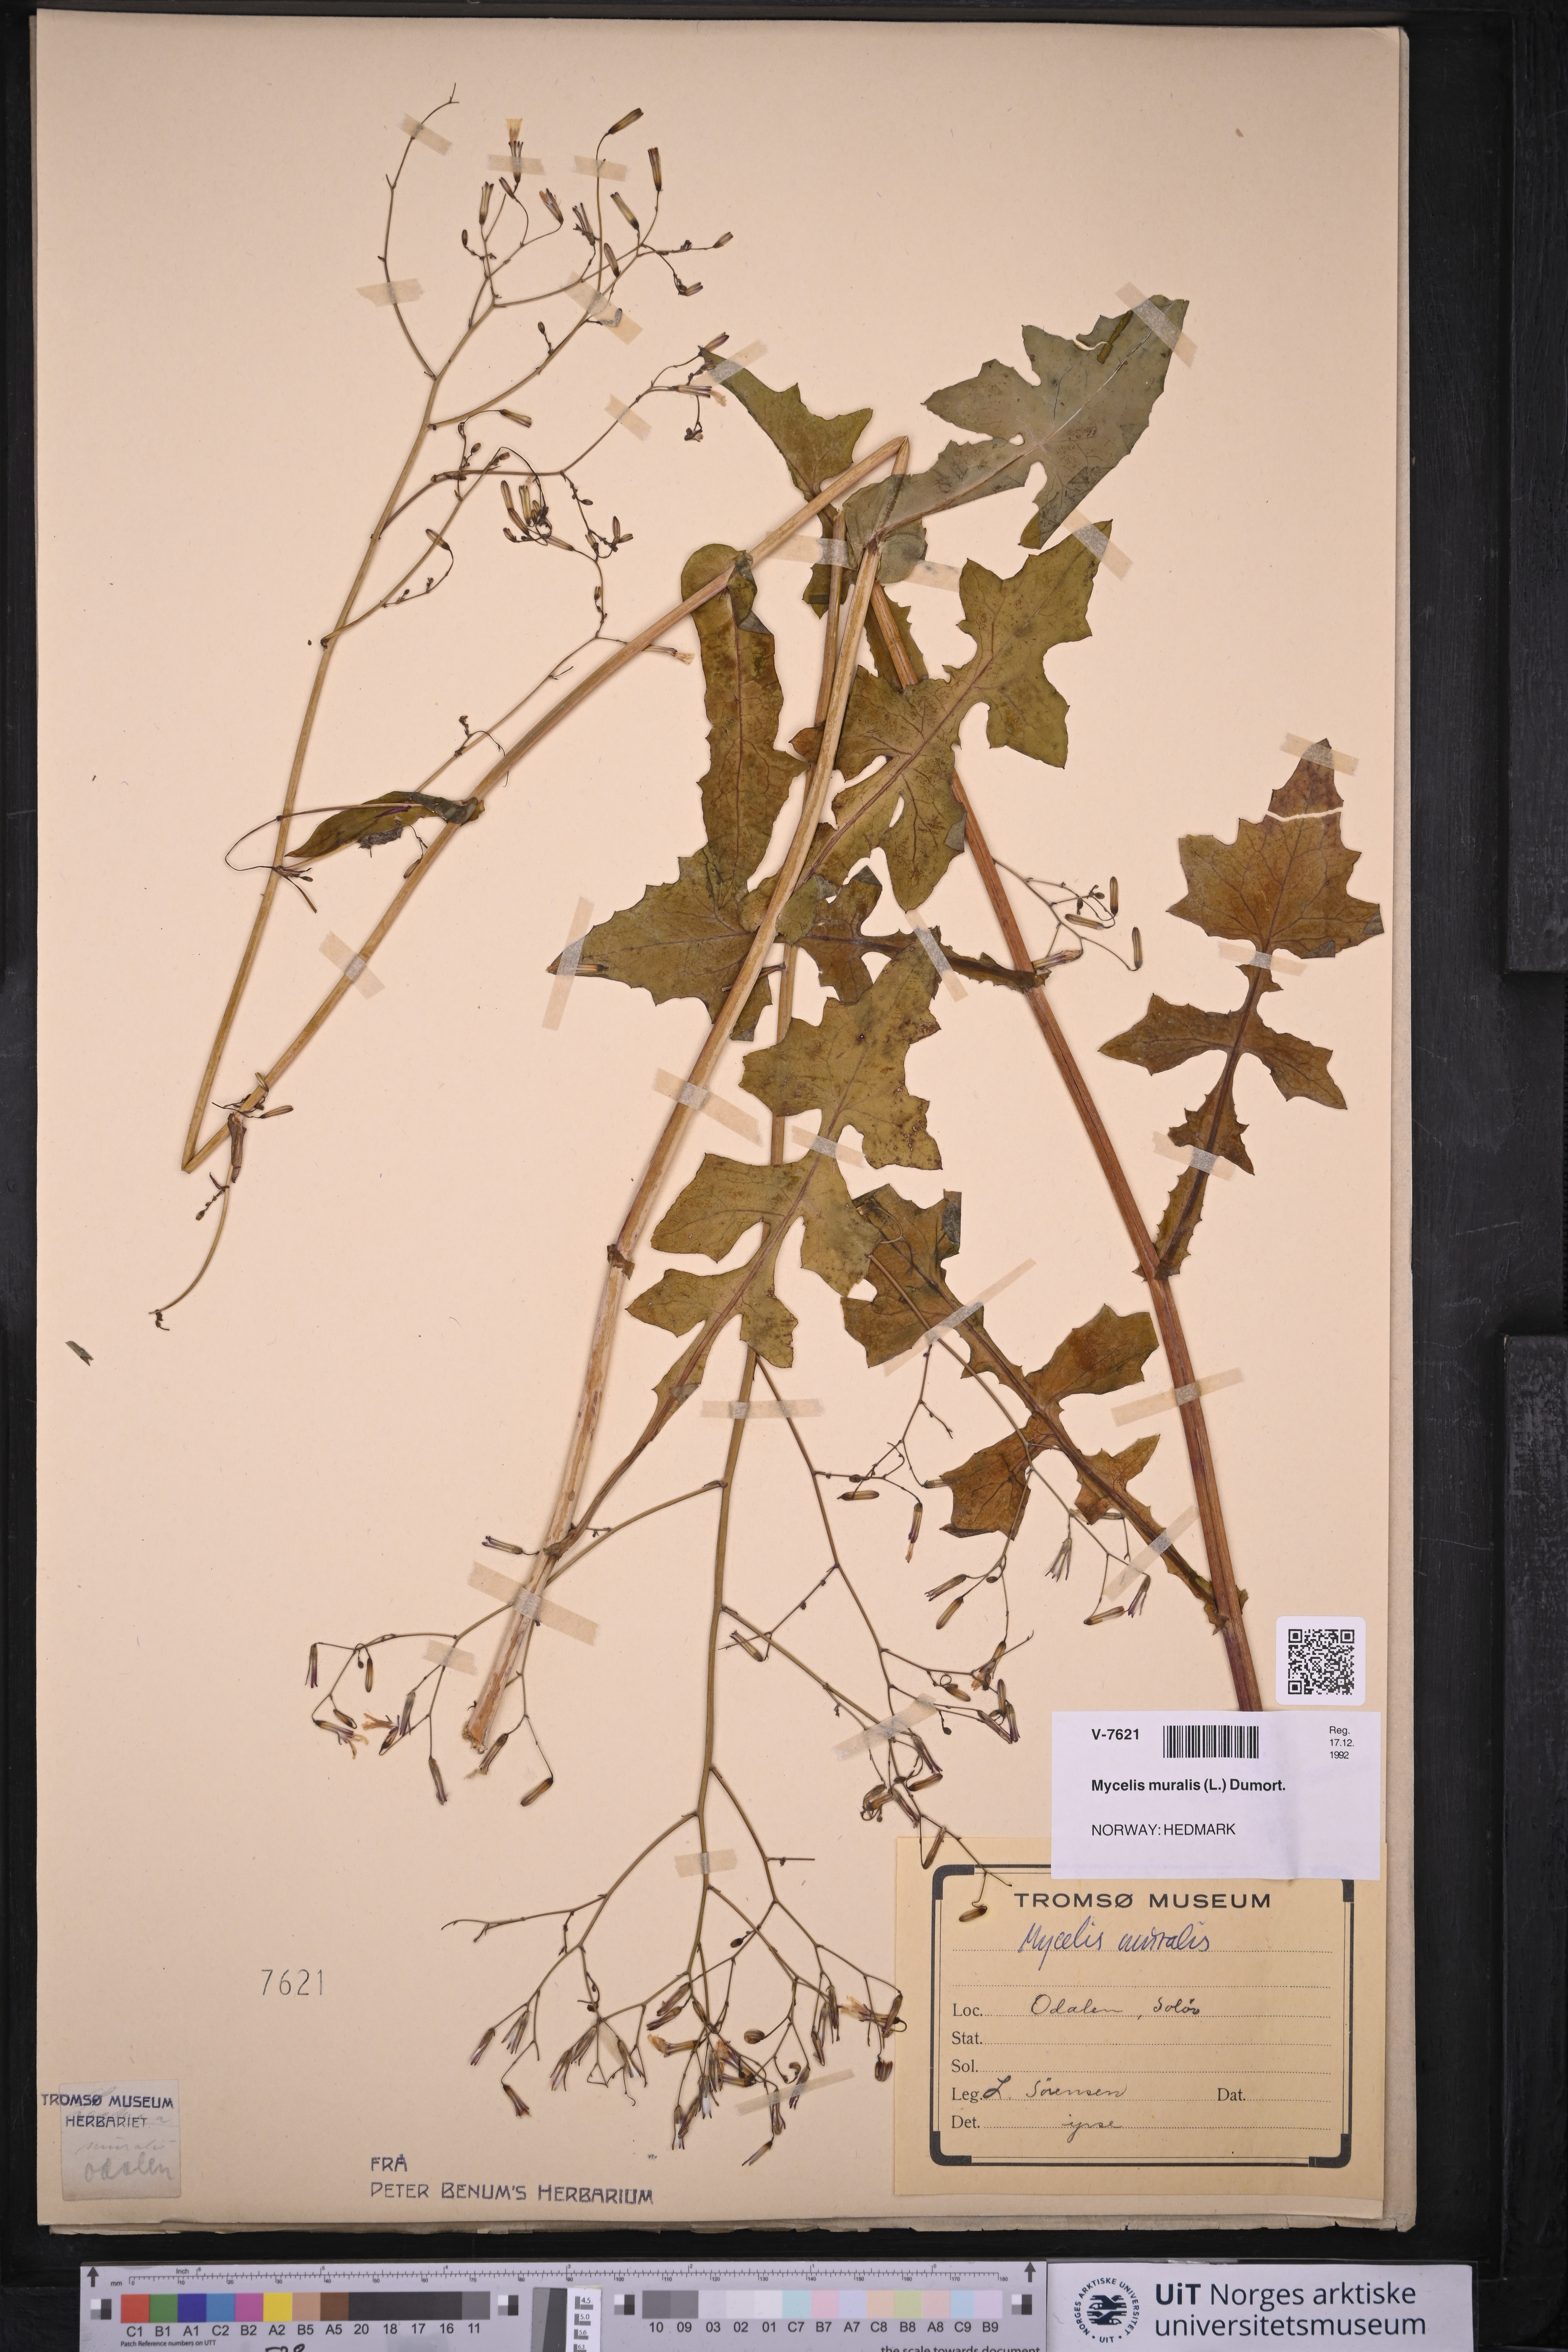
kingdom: Plantae
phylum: Tracheophyta
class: Magnoliopsida
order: Asterales
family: Asteraceae
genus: Mycelis
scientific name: Mycelis muralis
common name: Wall lettuce
